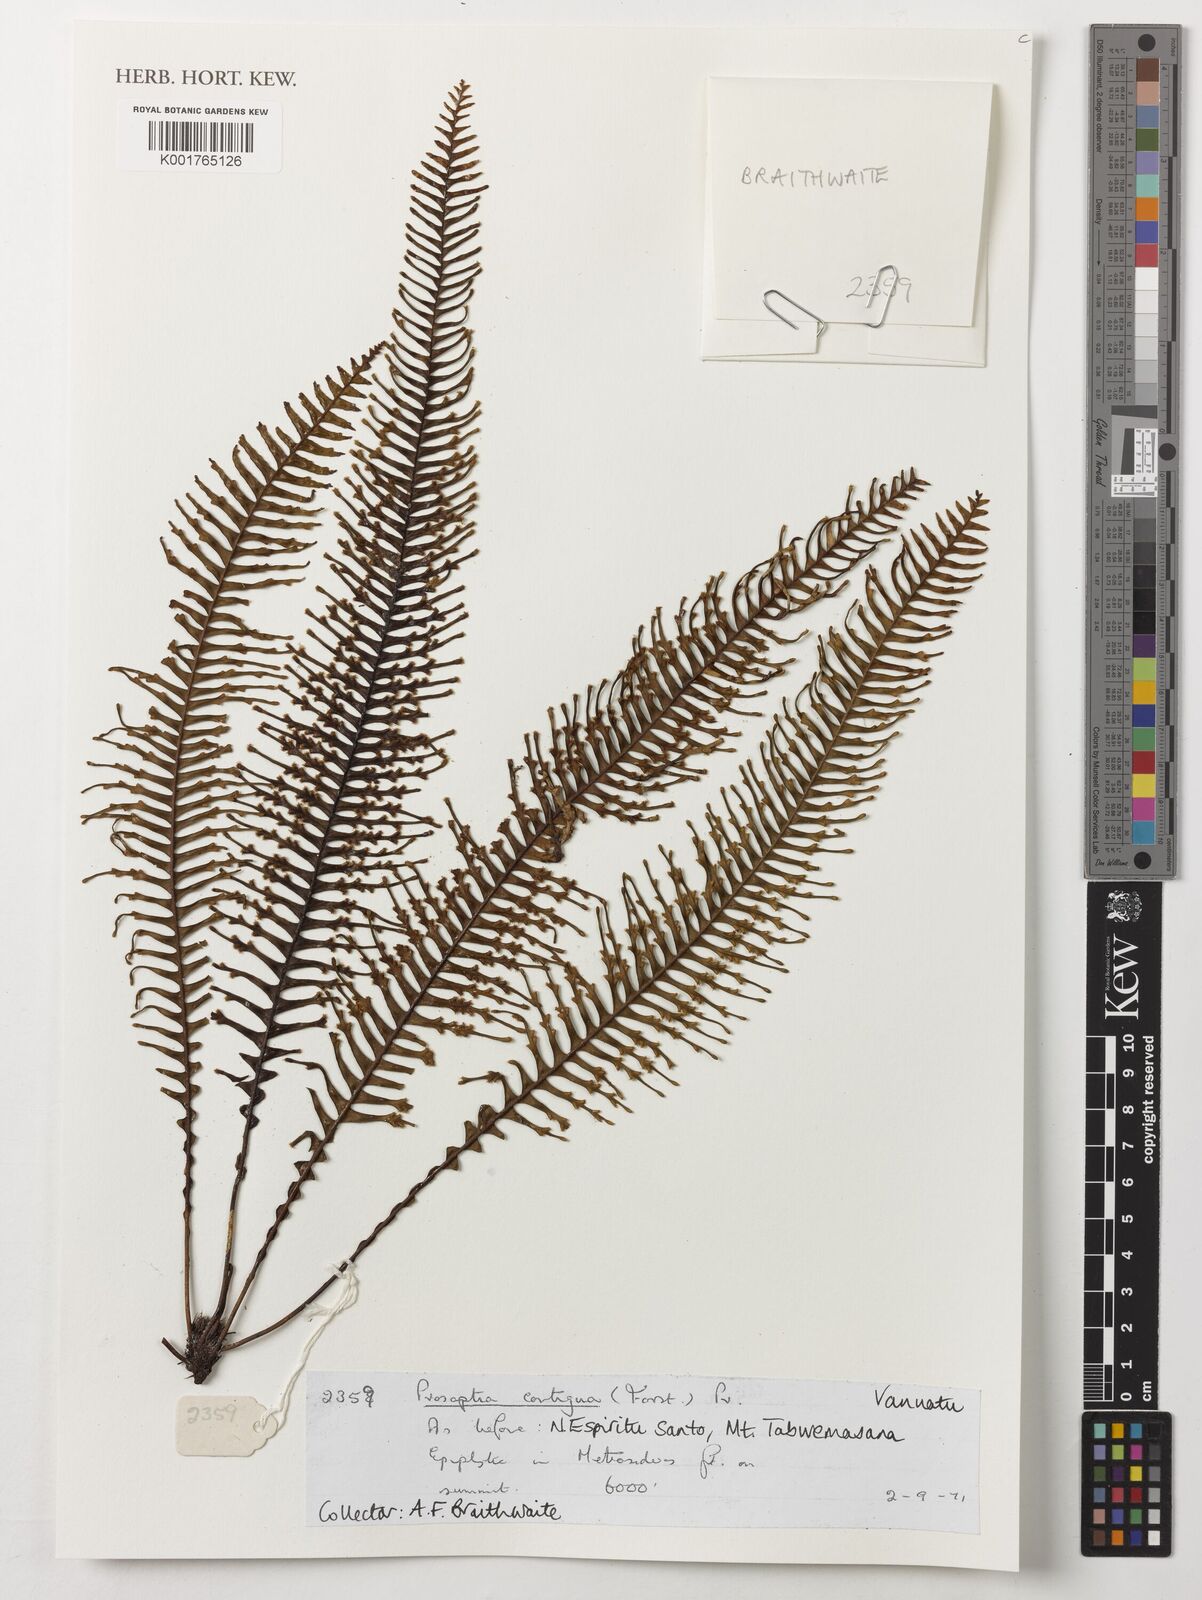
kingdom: Plantae
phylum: Tracheophyta
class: Polypodiopsida
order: Polypodiales
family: Polypodiaceae
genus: Prosaptia
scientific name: Prosaptia contigua
